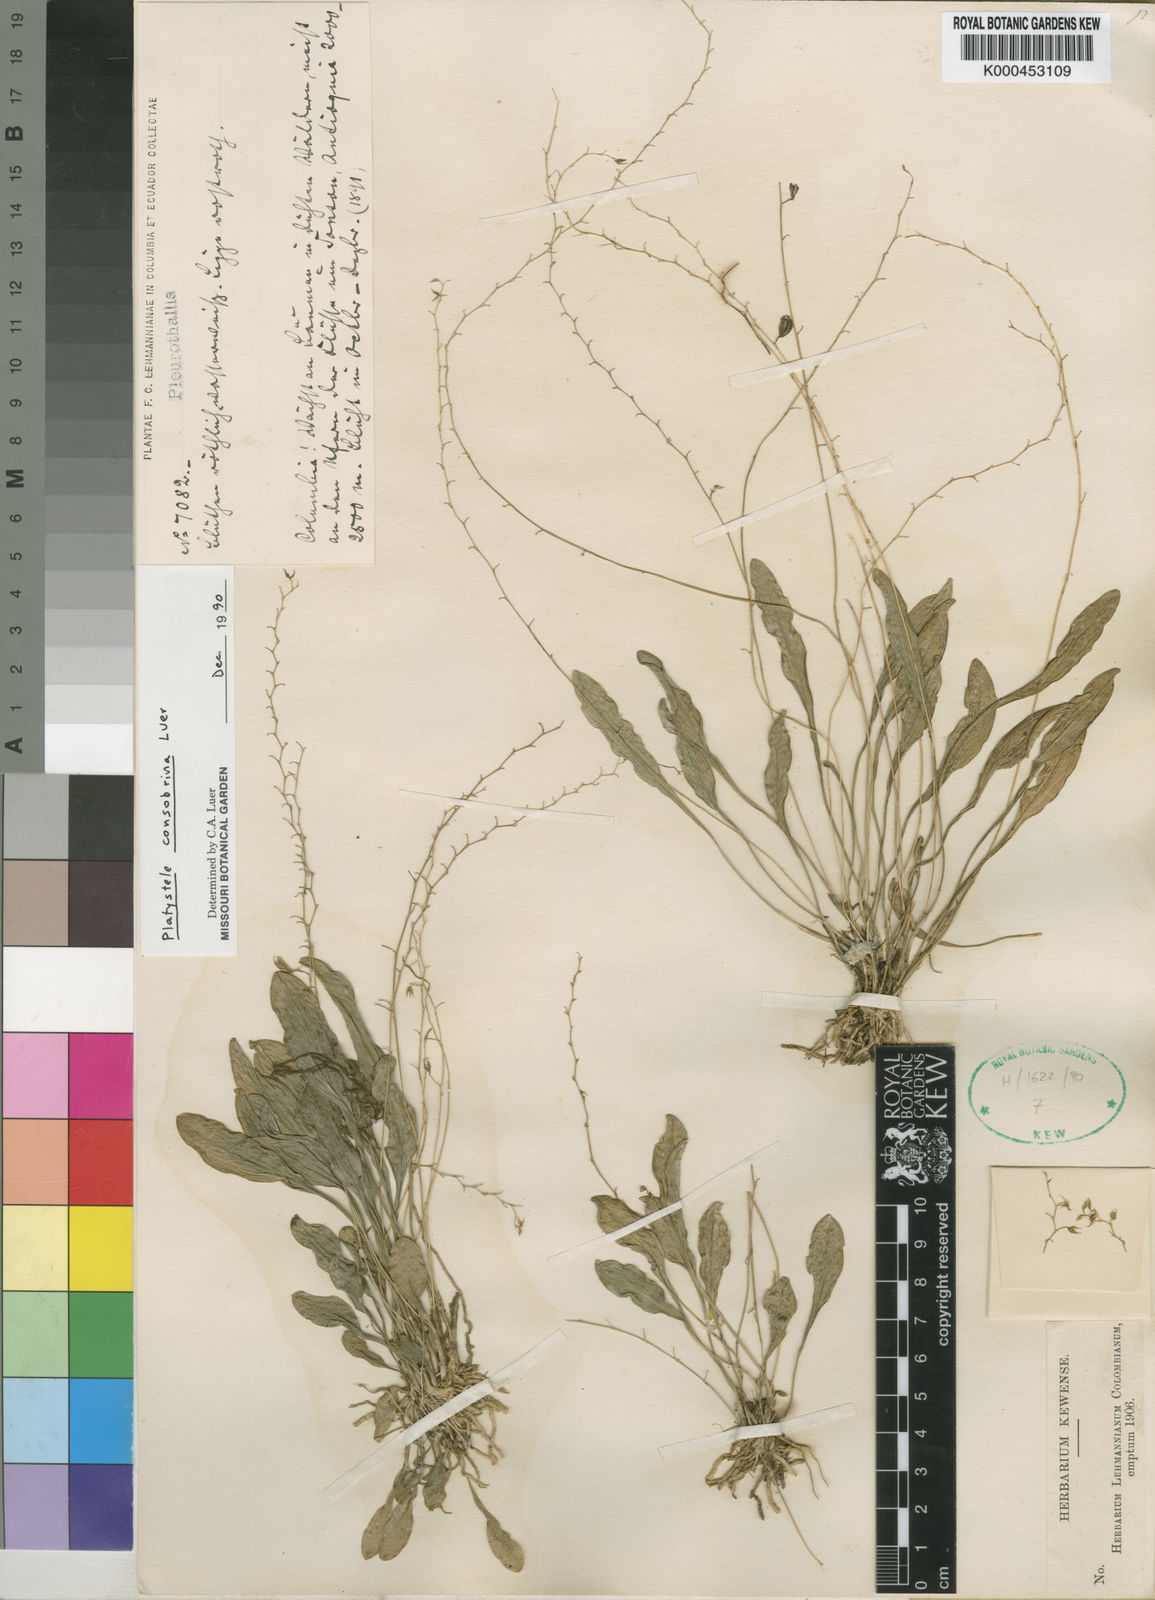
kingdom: Plantae
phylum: Tracheophyta
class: Liliopsida
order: Asparagales
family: Orchidaceae
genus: Platystele
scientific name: Platystele consobrina
